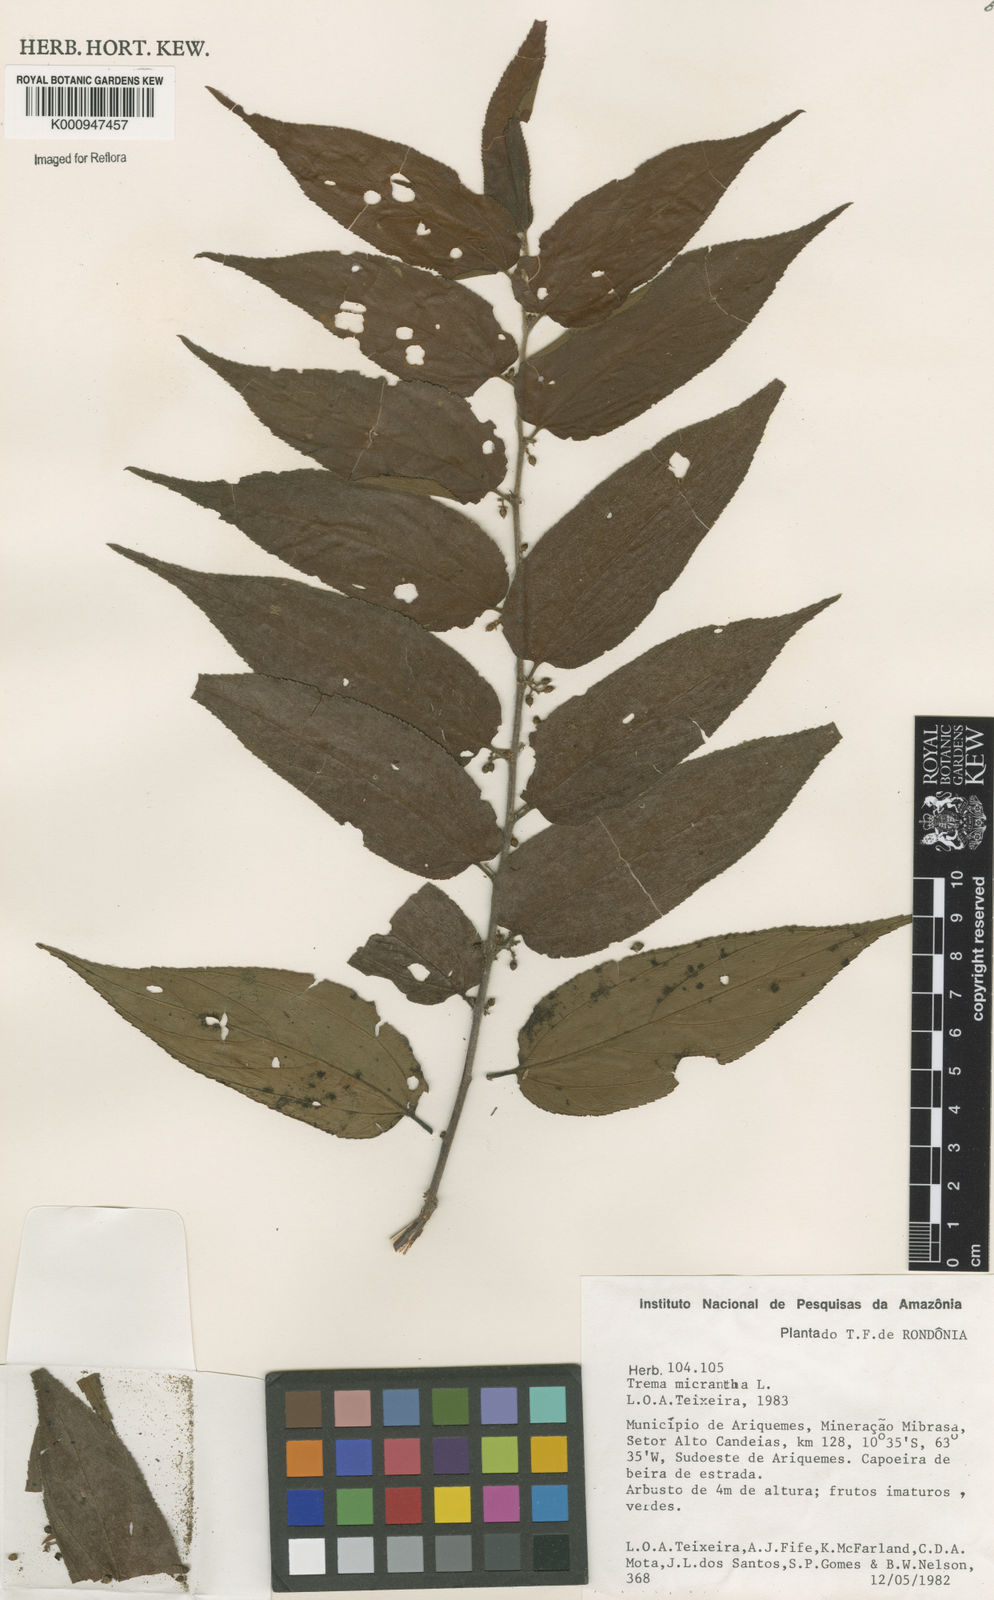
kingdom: Plantae
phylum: Tracheophyta
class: Magnoliopsida
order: Rosales
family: Cannabaceae
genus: Trema
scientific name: Trema micranthum
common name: Jamaican nettletree
